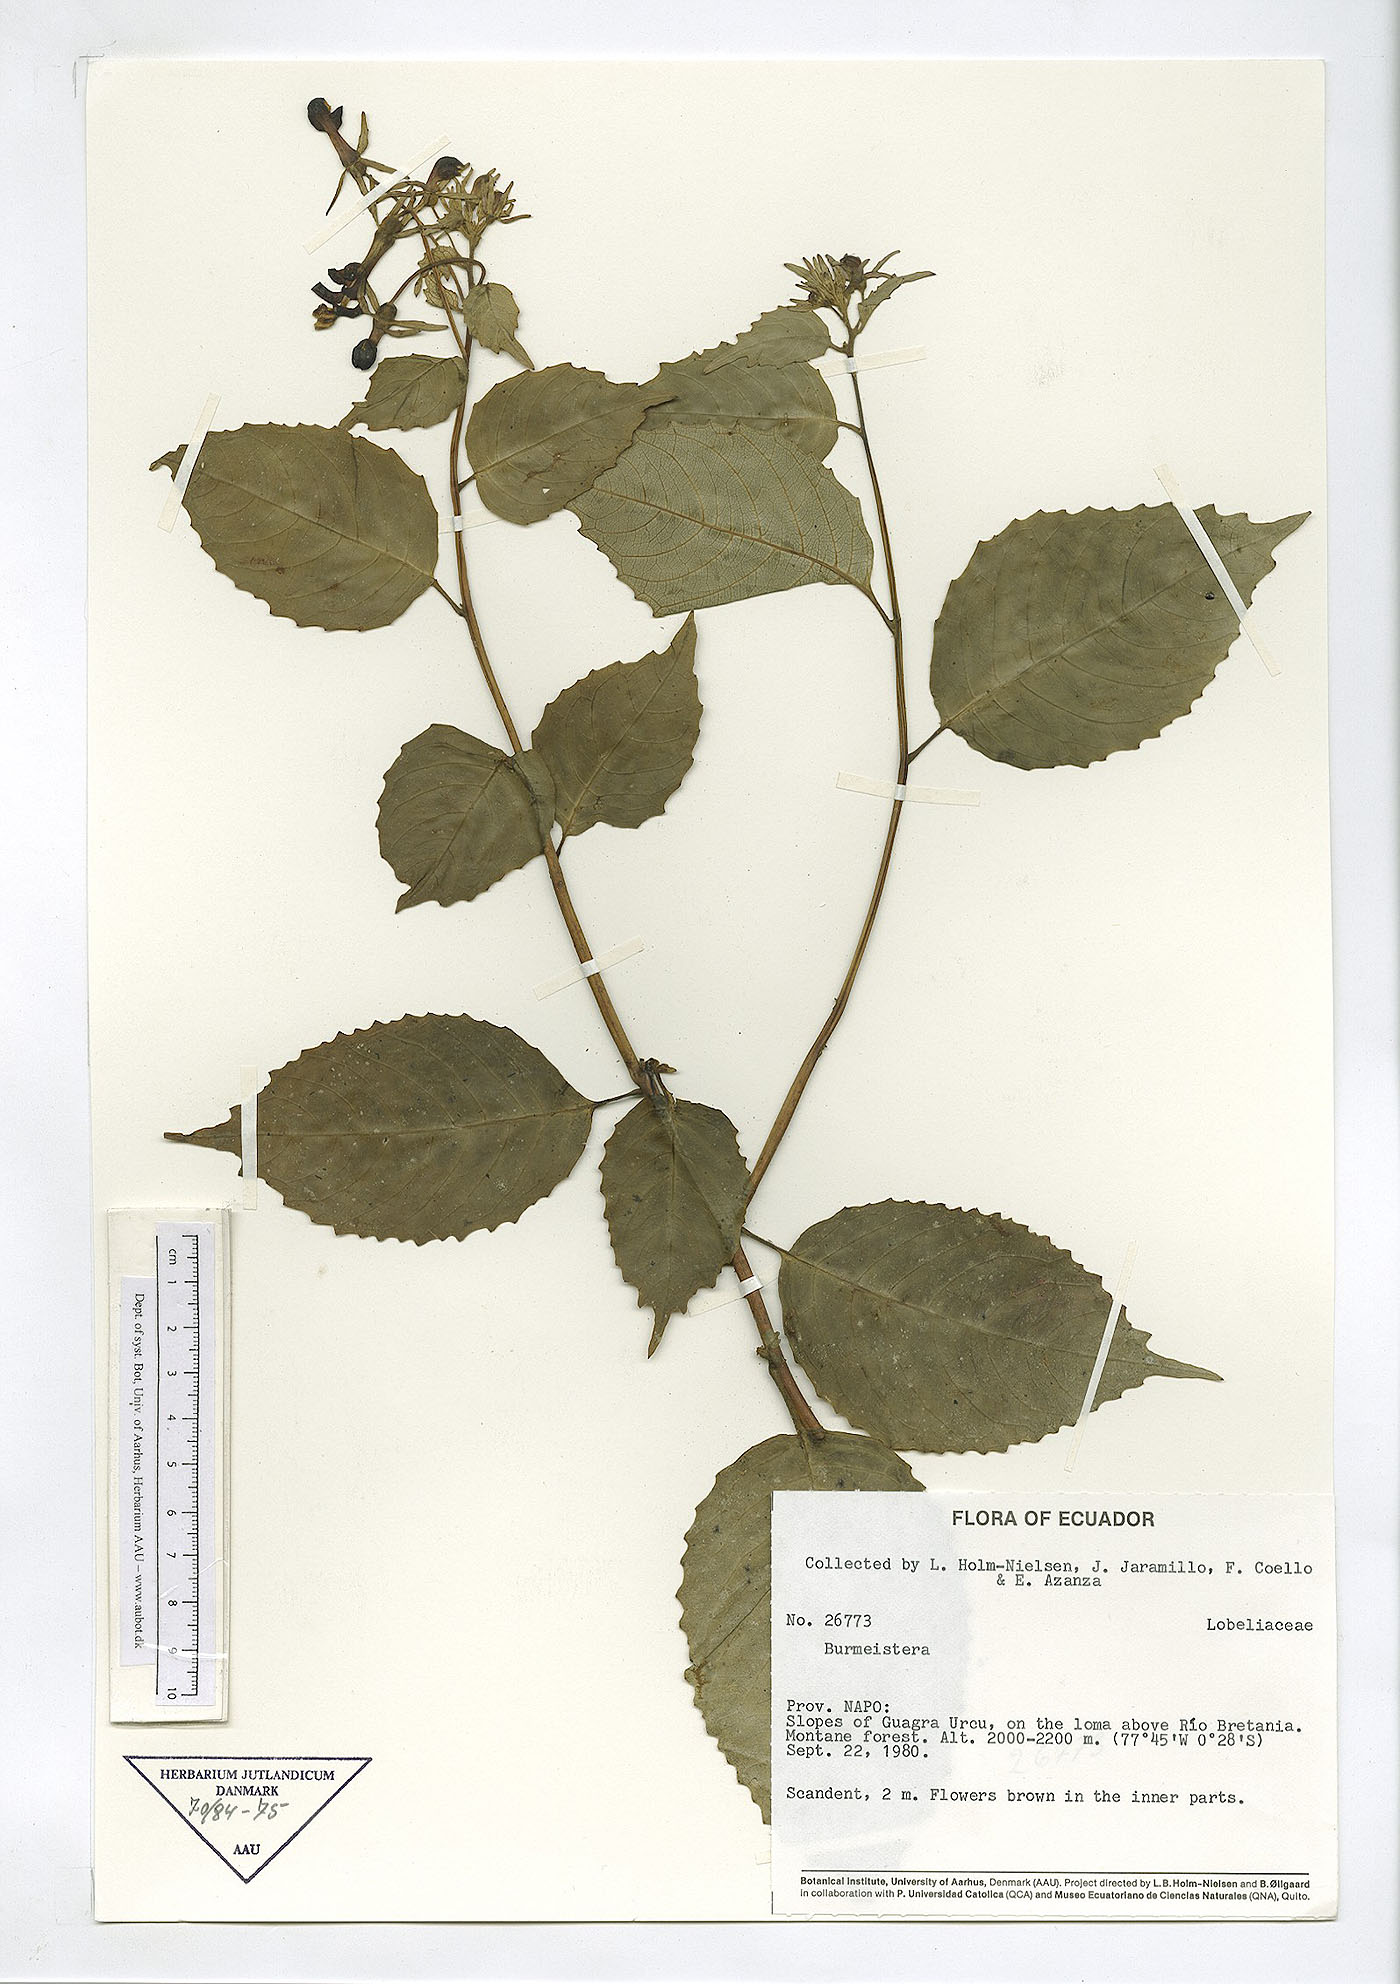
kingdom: Plantae
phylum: Tracheophyta
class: Magnoliopsida
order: Asterales
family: Campanulaceae
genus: Burmeistera
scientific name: Burmeistera
